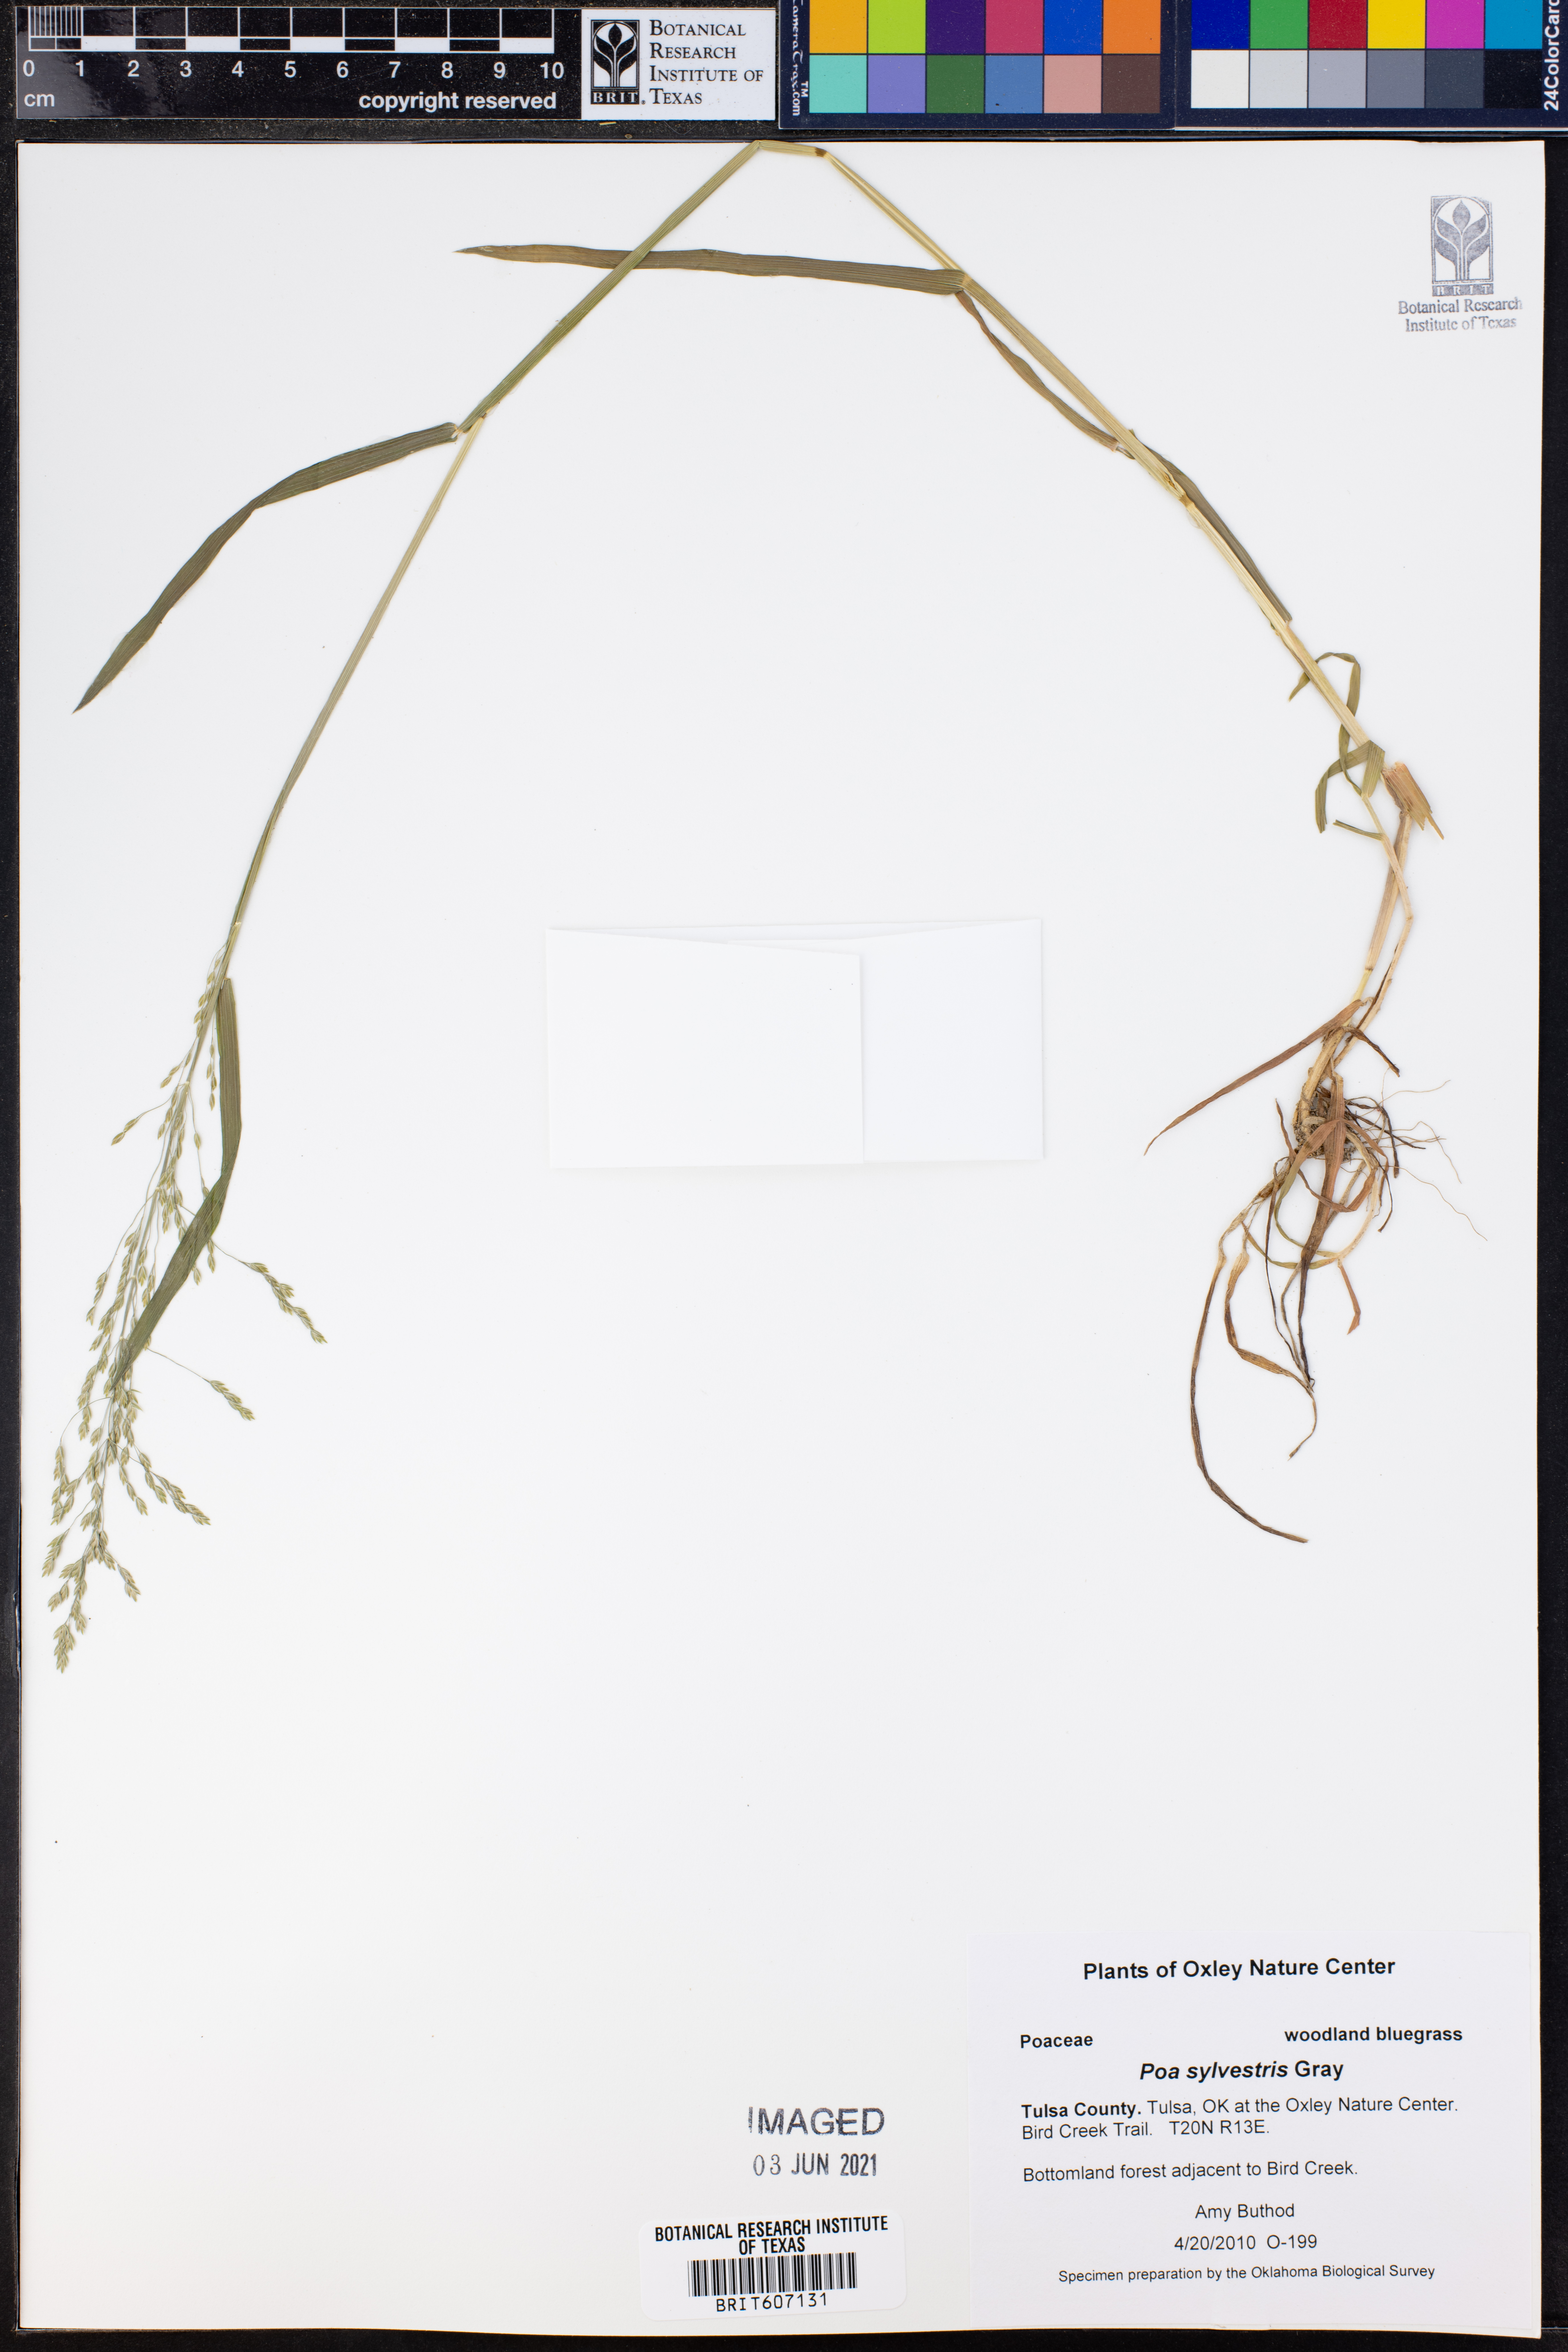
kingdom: Plantae
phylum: Tracheophyta
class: Liliopsida
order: Poales
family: Poaceae
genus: Poa
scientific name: Poa sylvestris
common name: North american woodland bluegrass
